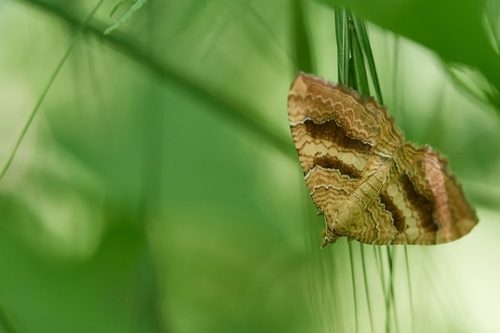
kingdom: Animalia
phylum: Arthropoda
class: Insecta
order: Lepidoptera
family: Geometridae
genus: Camptogramma
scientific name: Camptogramma bilineata
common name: Yellow shell
